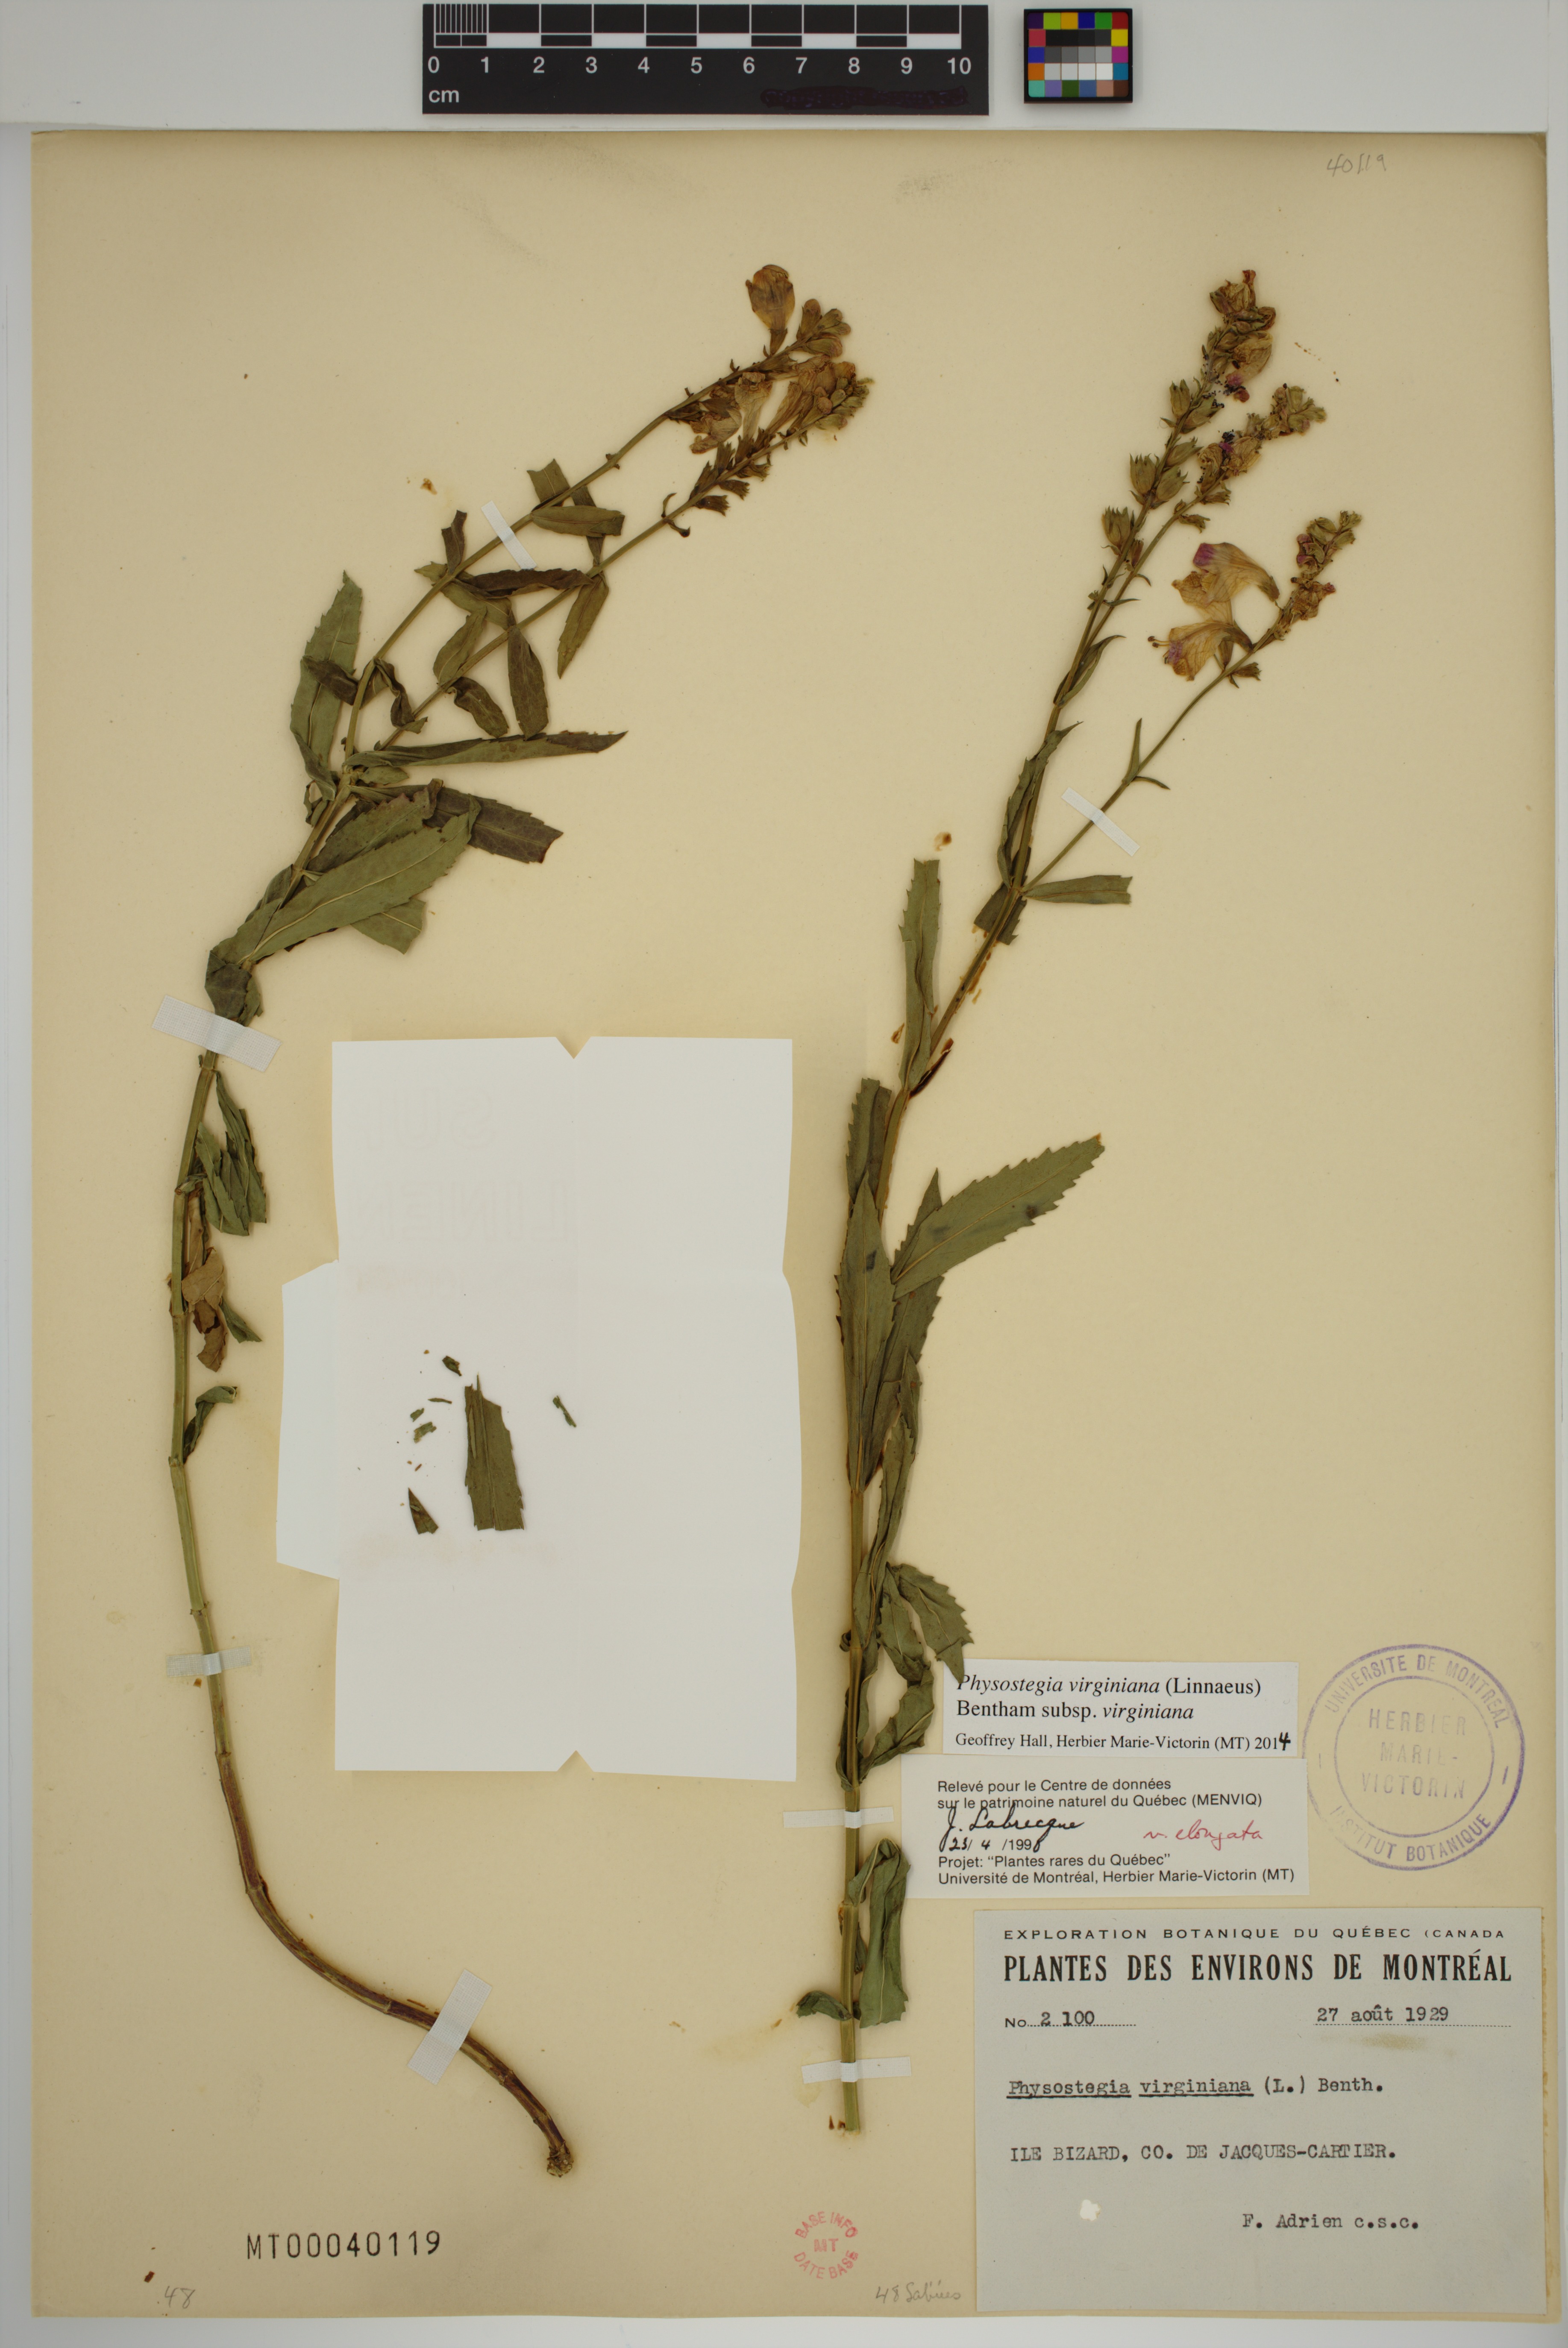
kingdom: Plantae
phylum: Tracheophyta
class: Magnoliopsida
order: Lamiales
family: Lamiaceae
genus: Physostegia
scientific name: Physostegia virginiana
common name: Obedient-plant
